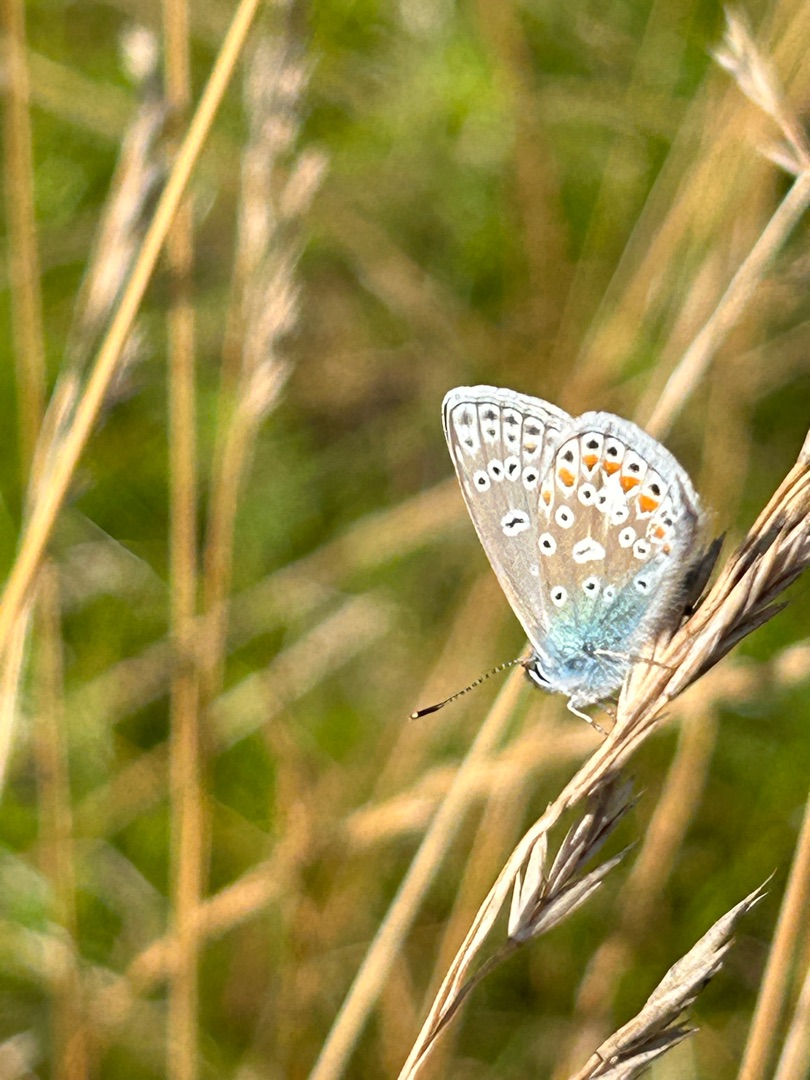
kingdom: Animalia
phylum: Arthropoda
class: Insecta
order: Lepidoptera
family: Lycaenidae
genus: Polyommatus
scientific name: Polyommatus icarus
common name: Almindelig blåfugl
